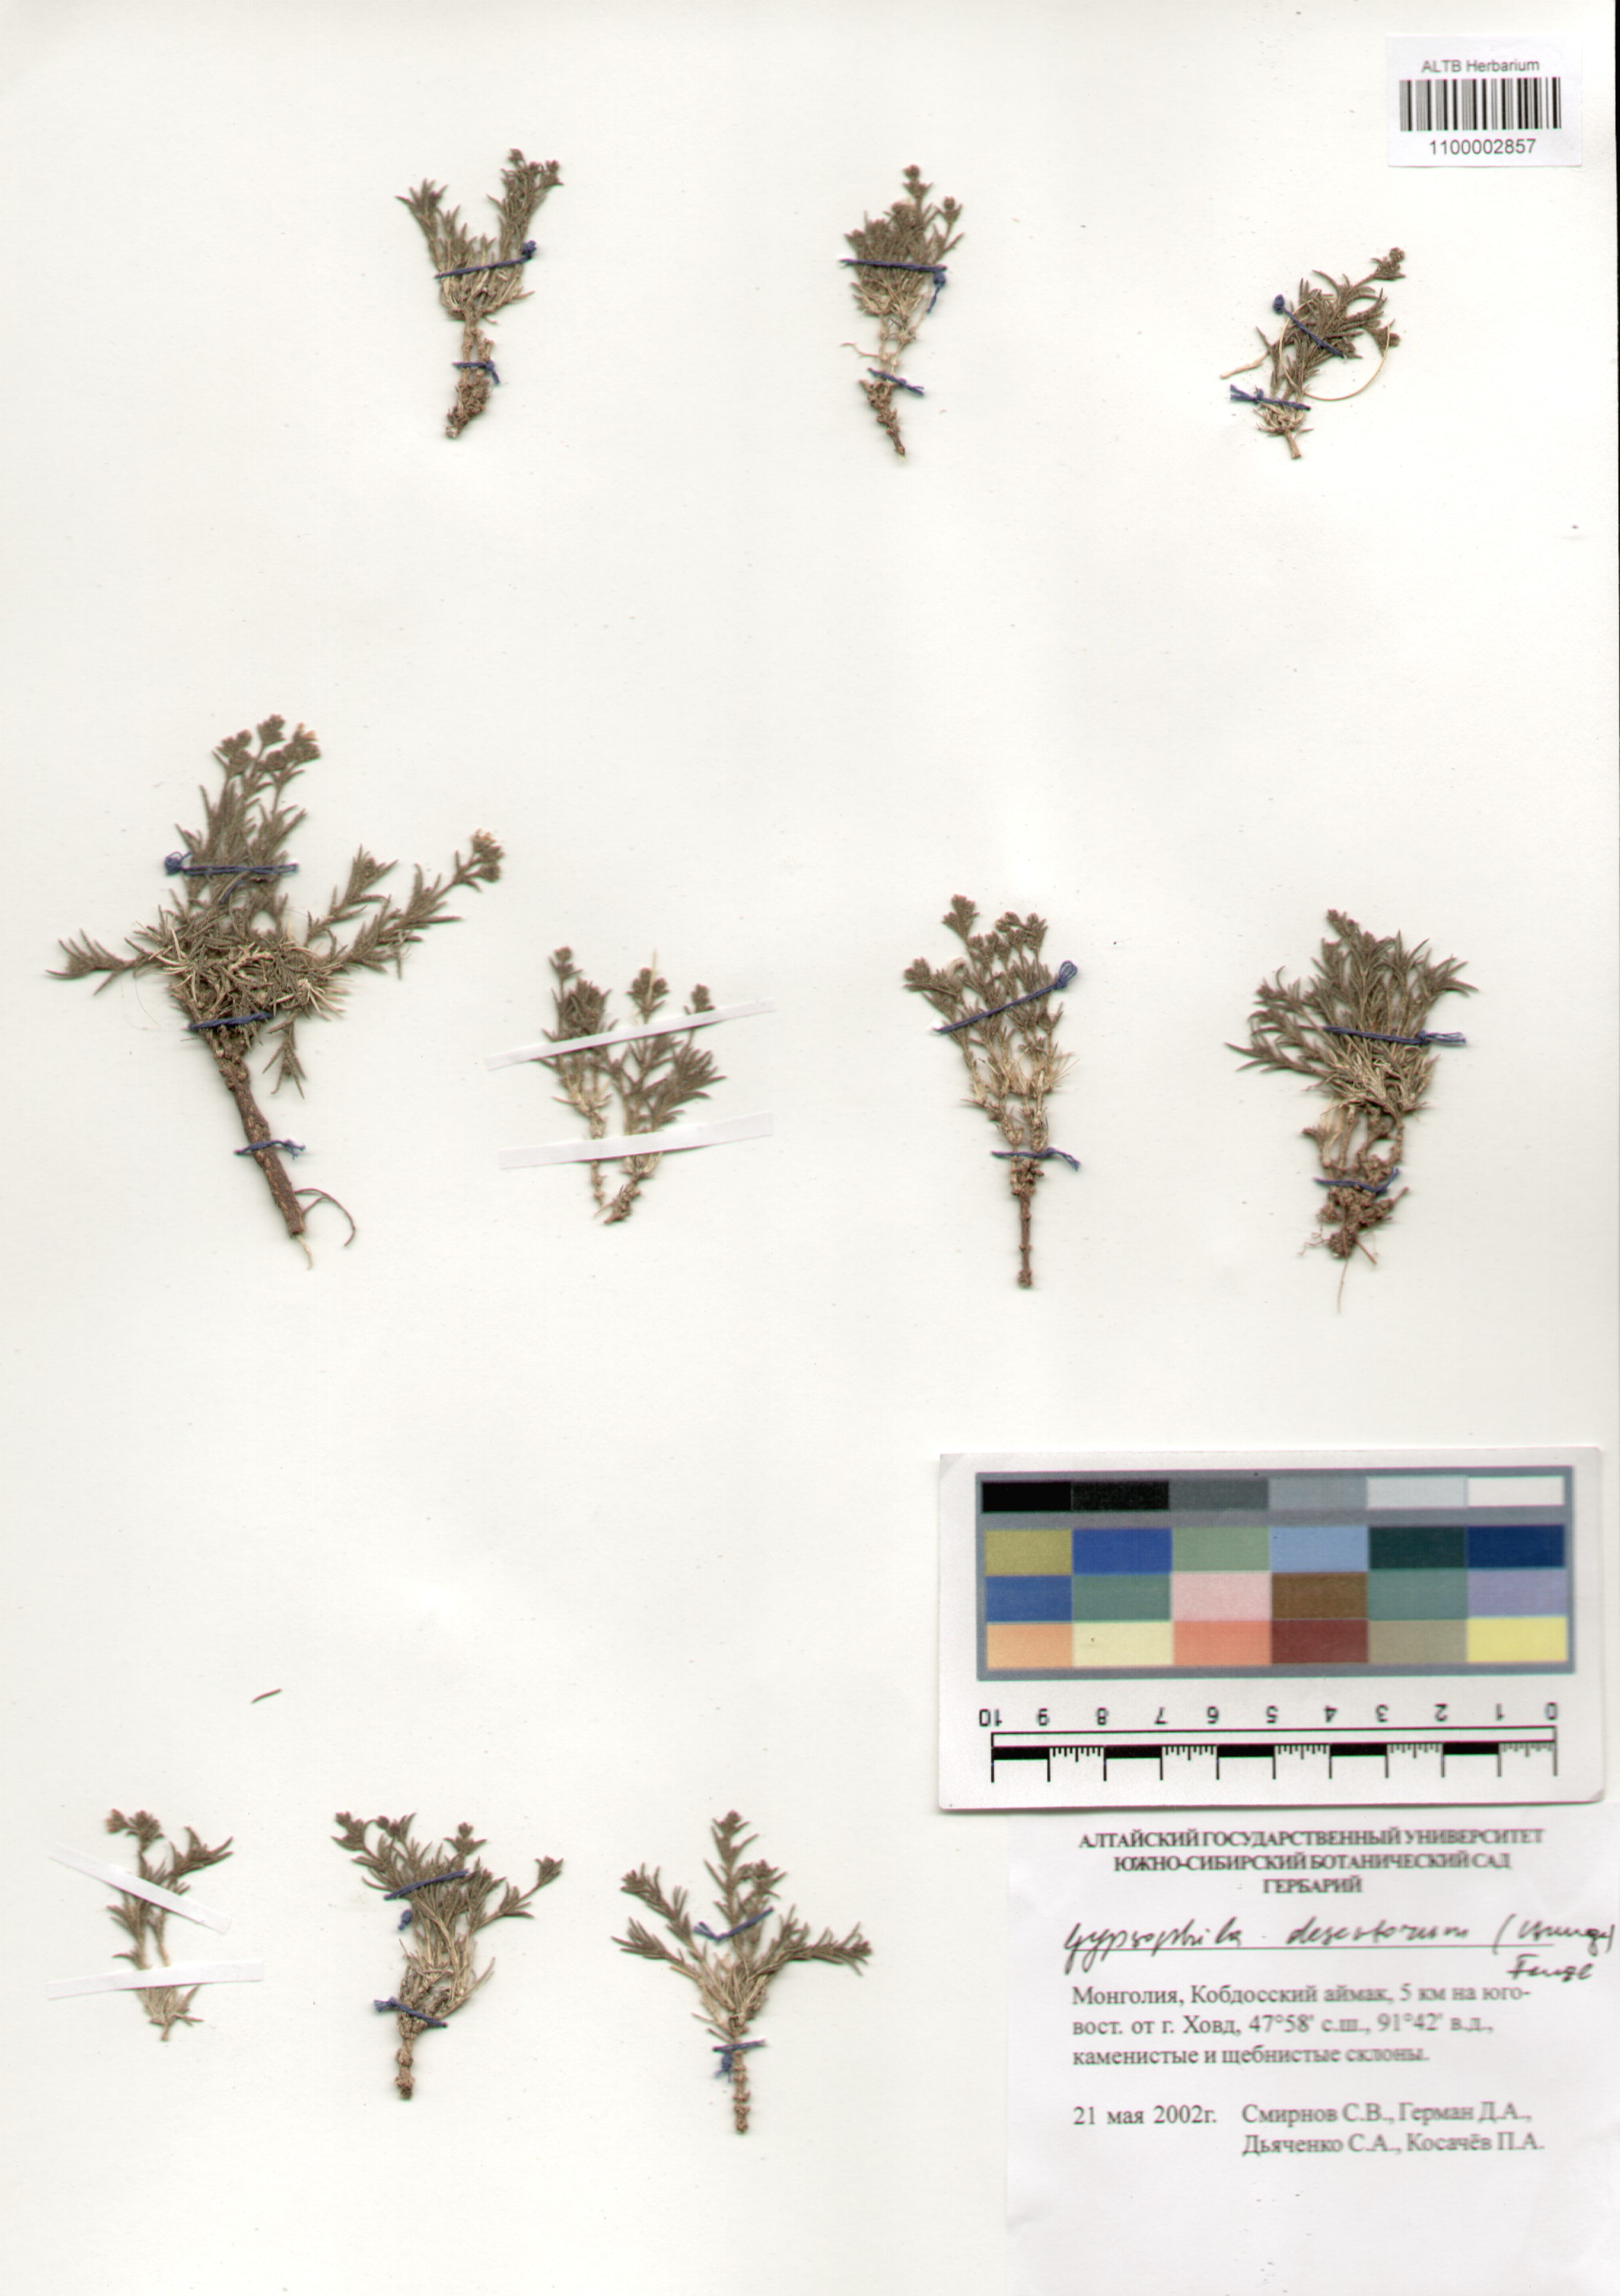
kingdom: Plantae
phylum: Tracheophyta
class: Magnoliopsida
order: Caryophyllales
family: Caryophyllaceae
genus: Heterochroa
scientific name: Heterochroa desertorum
